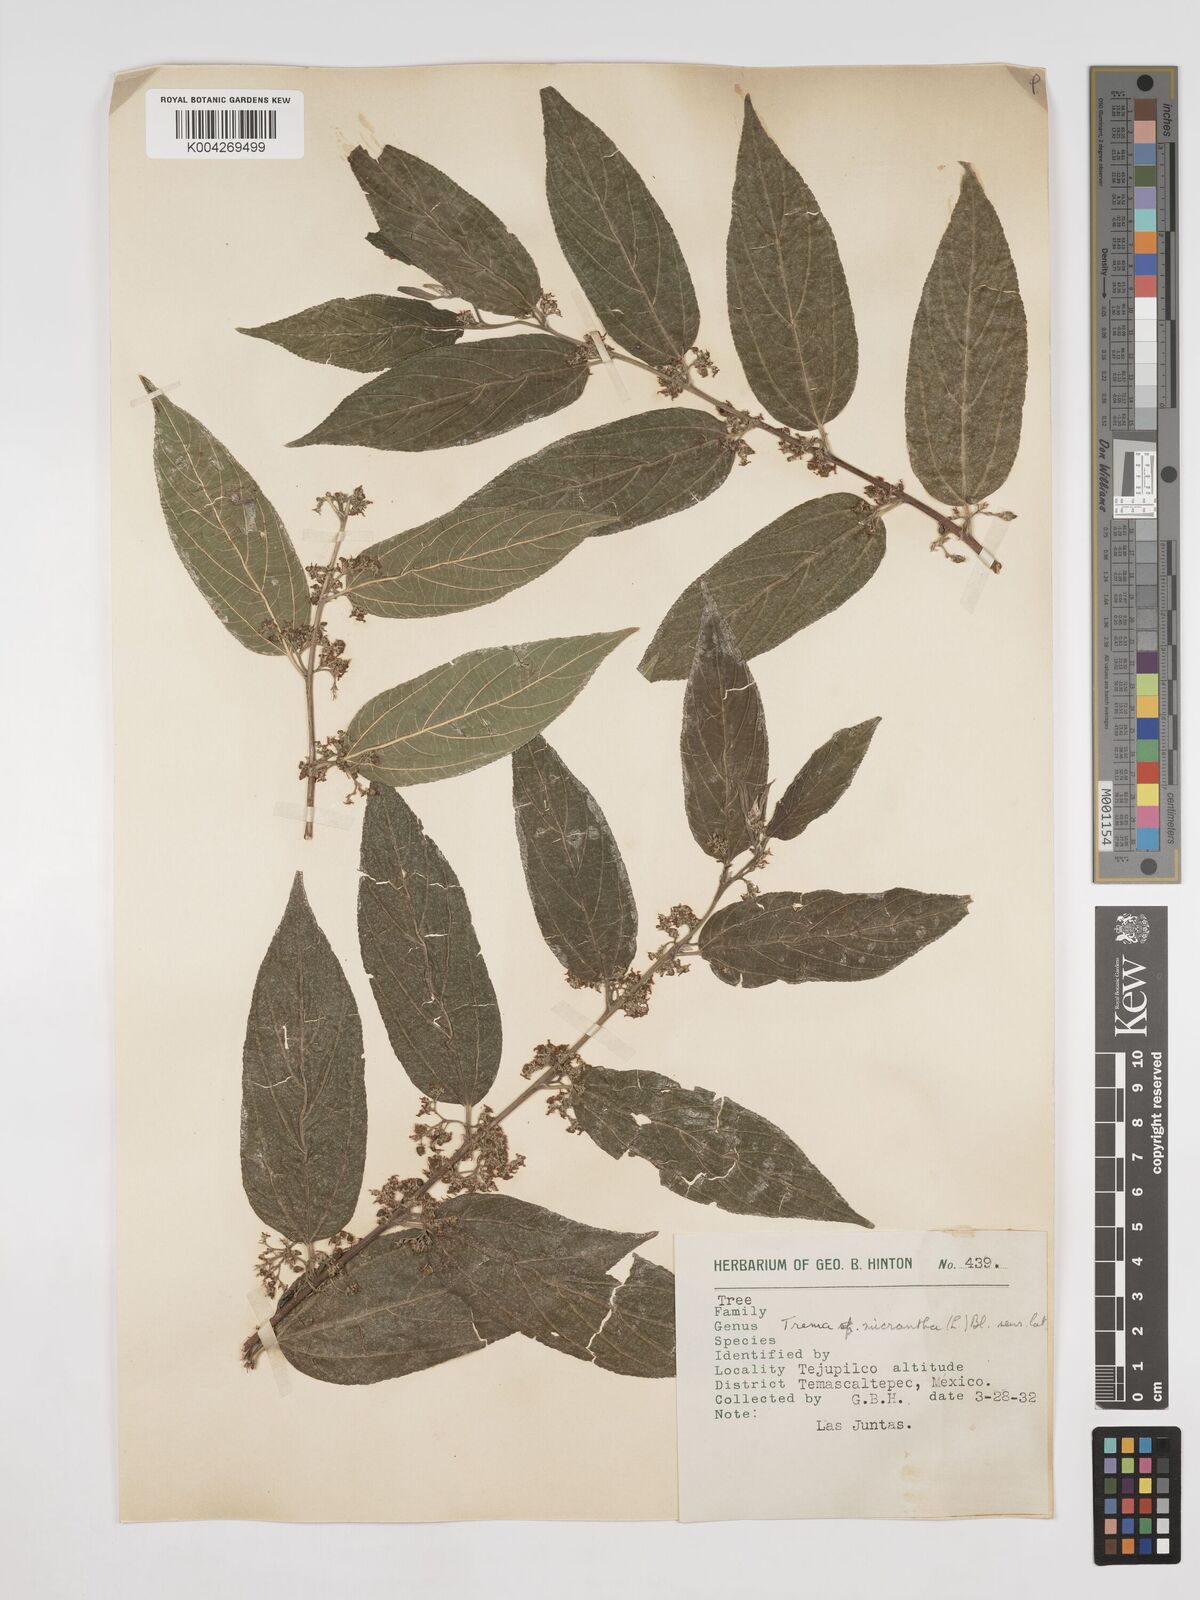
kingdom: Plantae
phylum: Tracheophyta
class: Magnoliopsida
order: Rosales
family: Cannabaceae
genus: Trema
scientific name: Trema micranthum
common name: Jamaican nettletree
